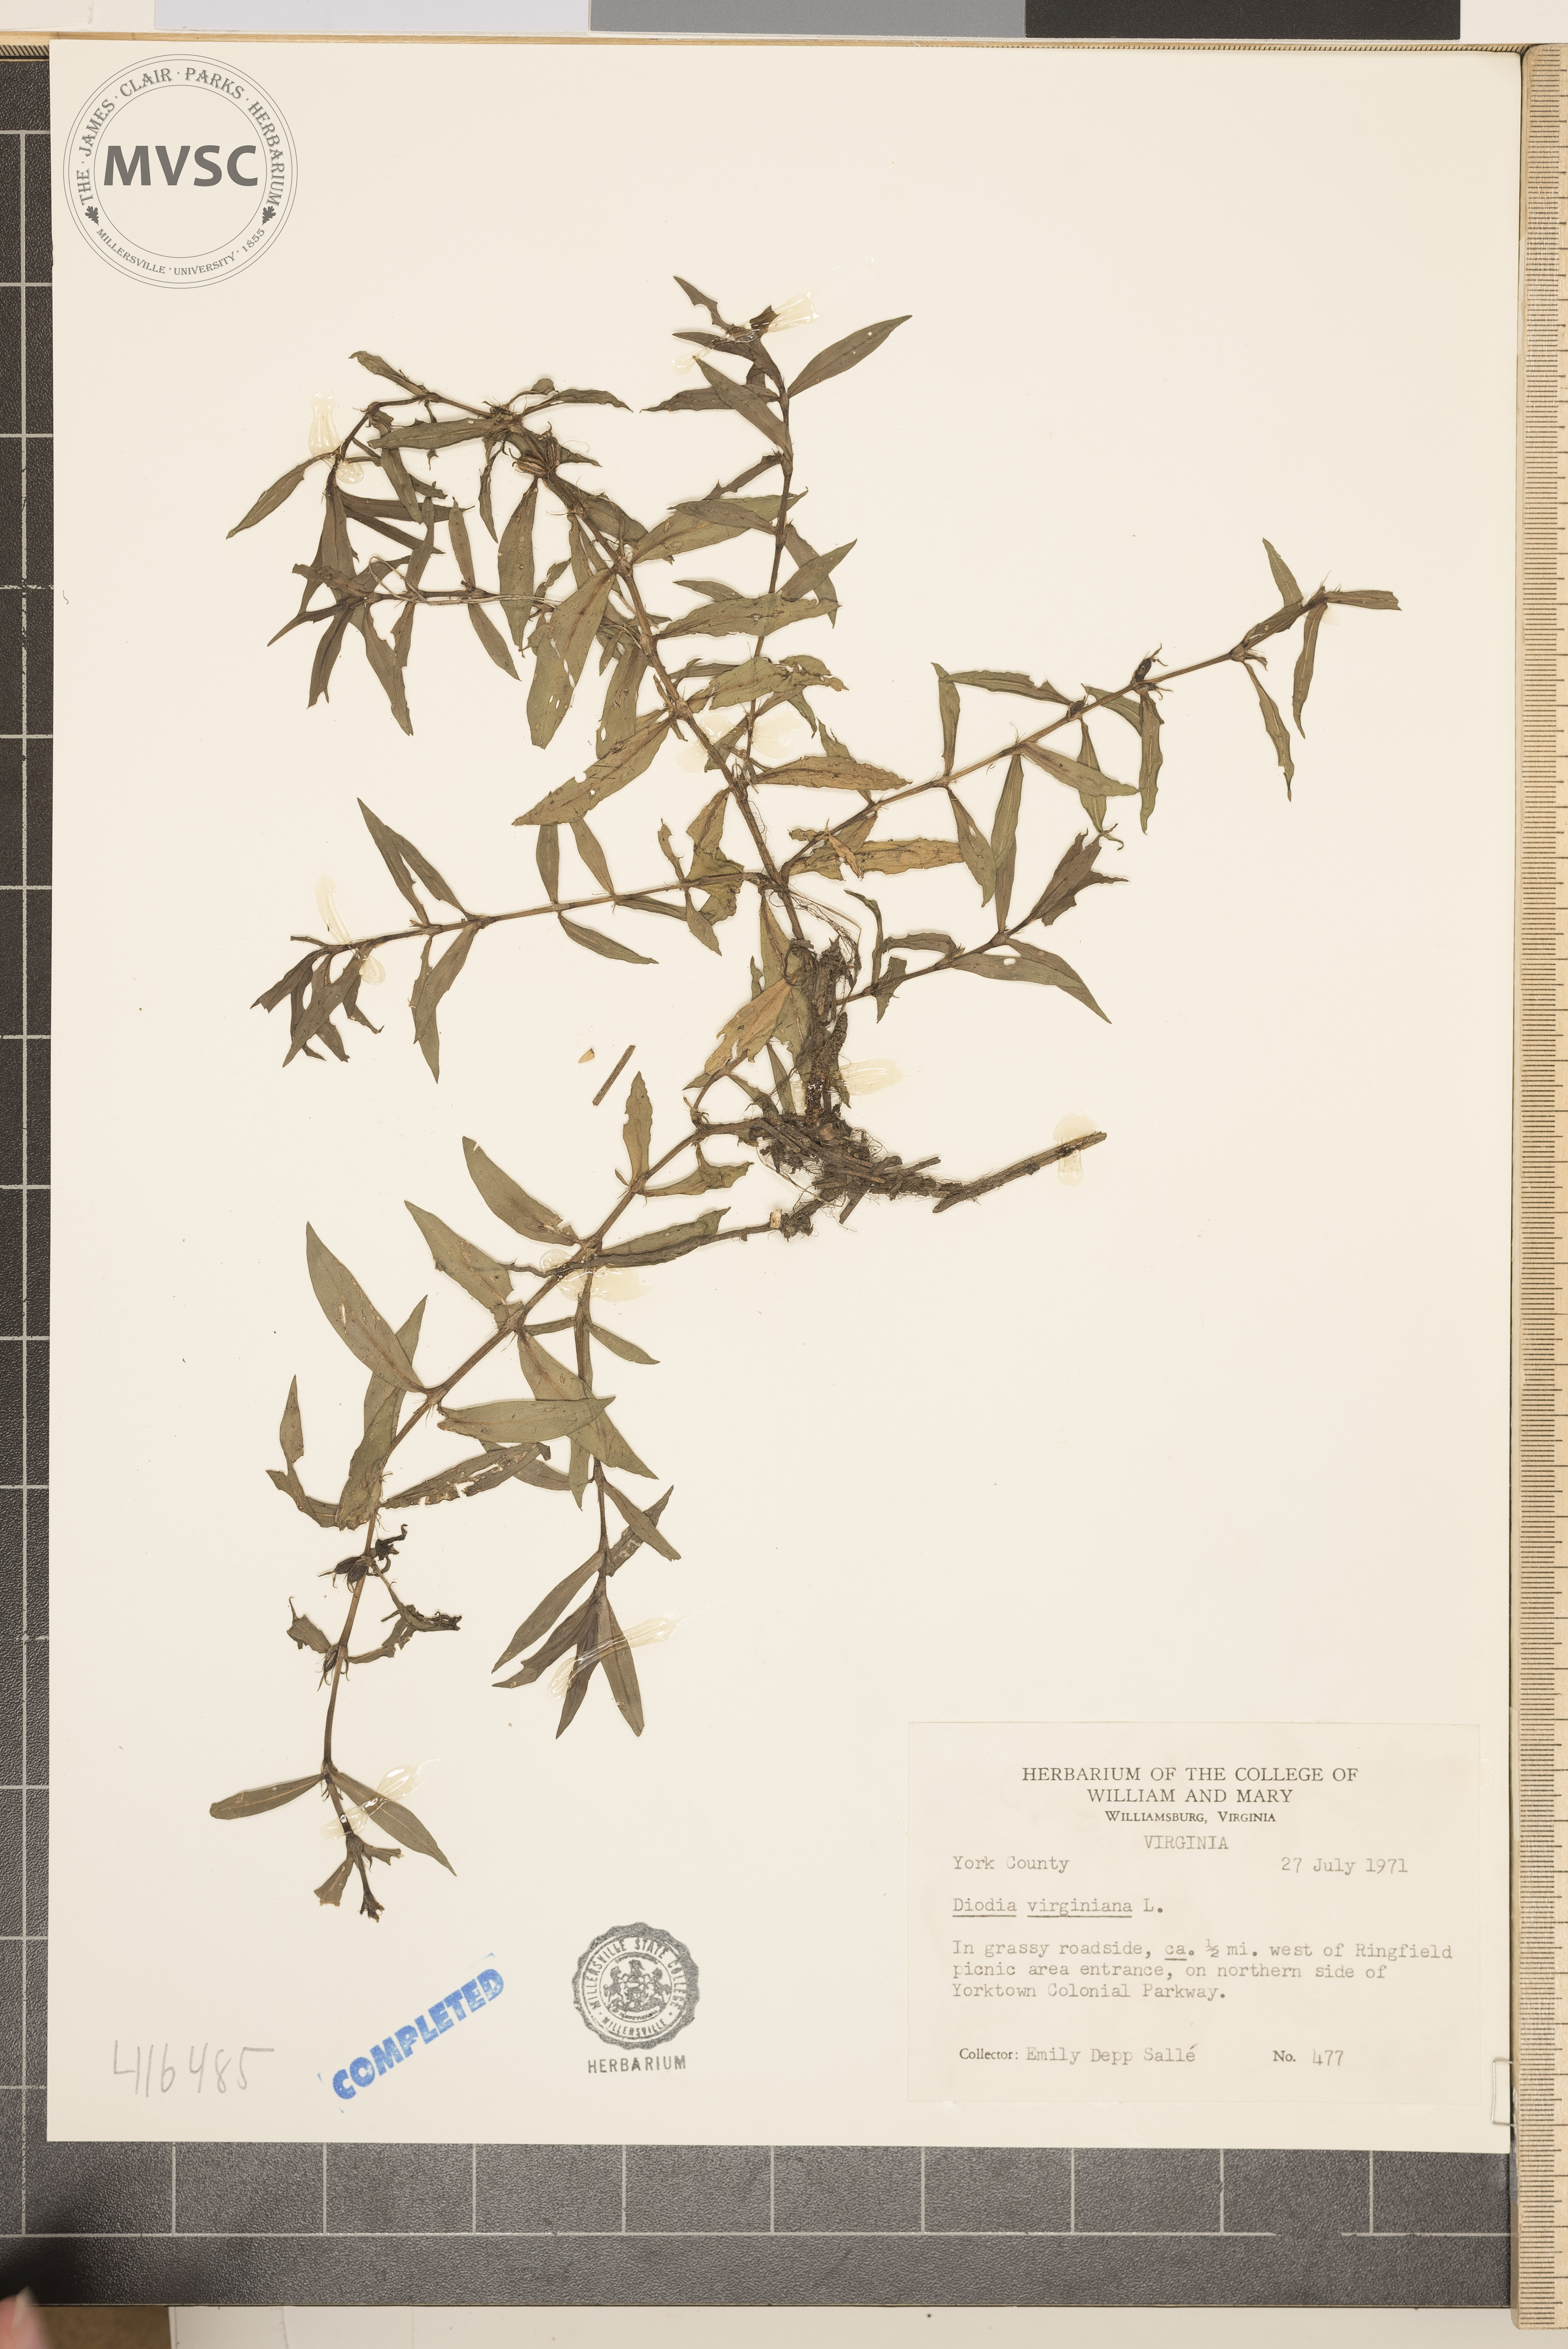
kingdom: Plantae
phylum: Tracheophyta
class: Magnoliopsida
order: Gentianales
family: Rubiaceae
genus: Diodia
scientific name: Diodia virginiana
